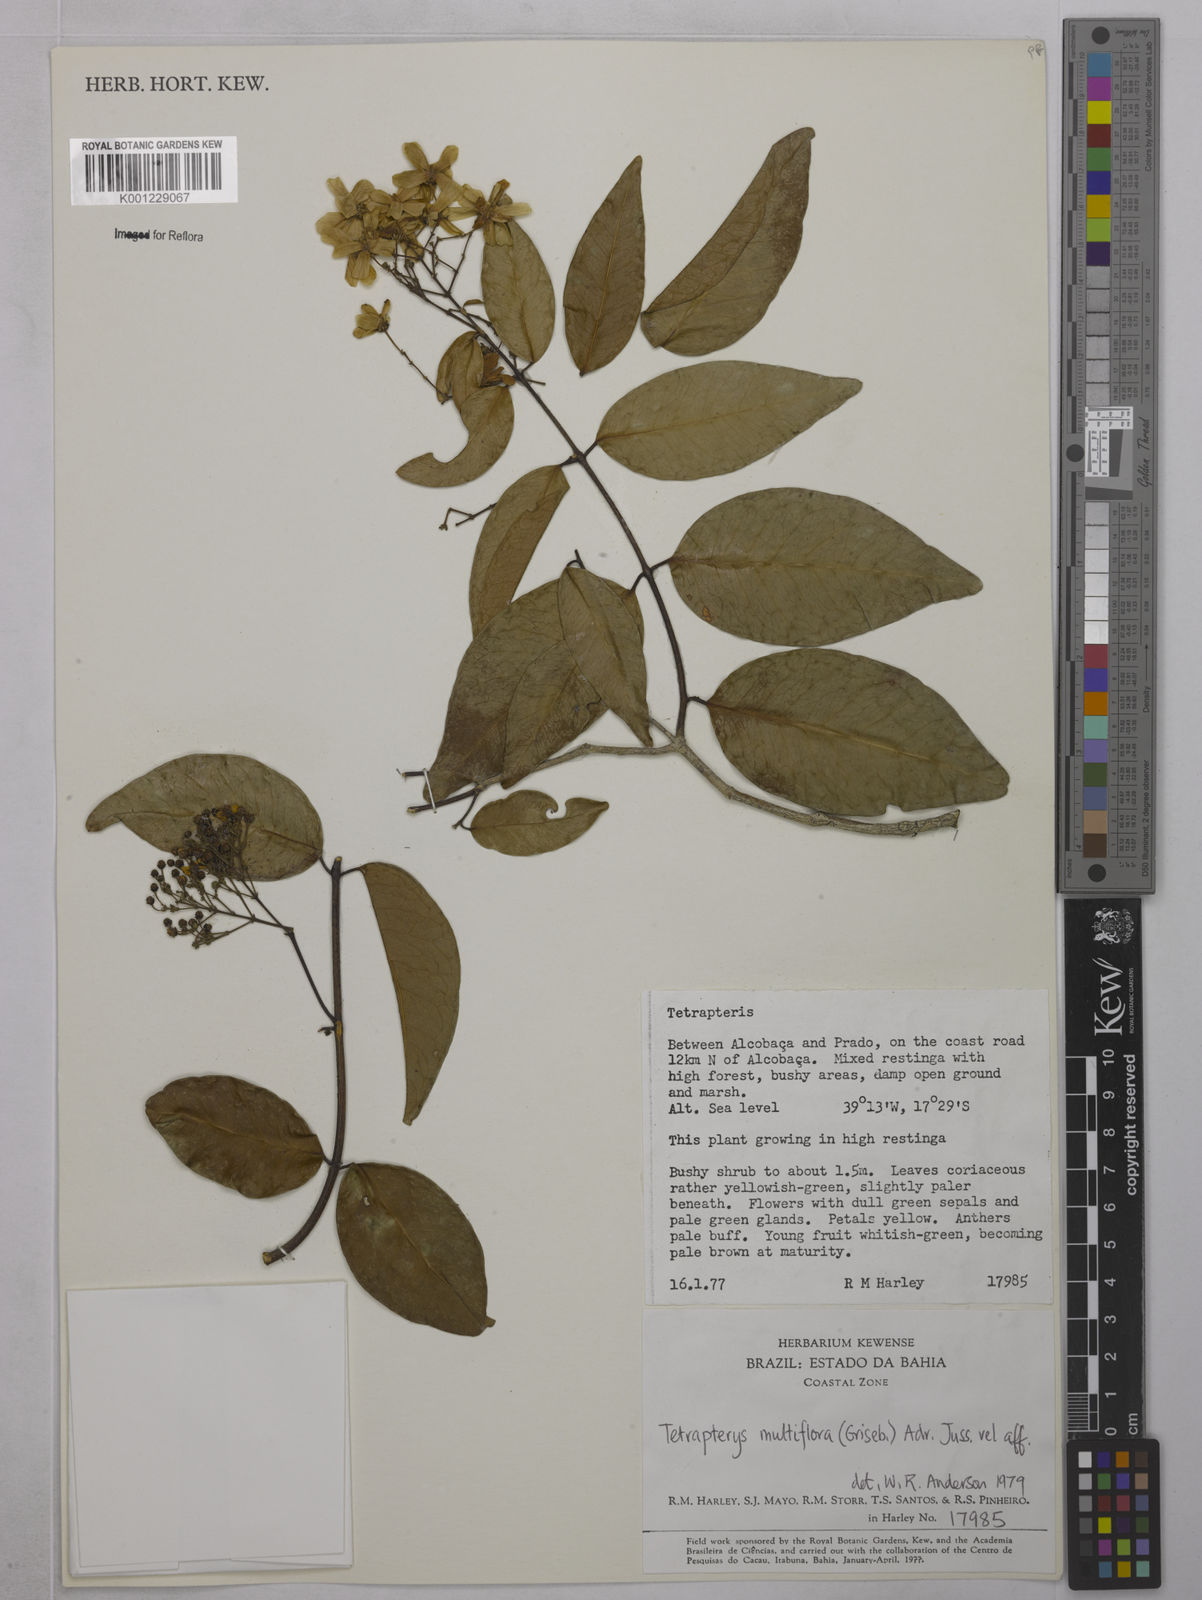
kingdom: Plantae
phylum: Tracheophyta
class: Magnoliopsida
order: Malpighiales
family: Malpighiaceae
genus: Niedenzuella
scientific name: Niedenzuella lucida
